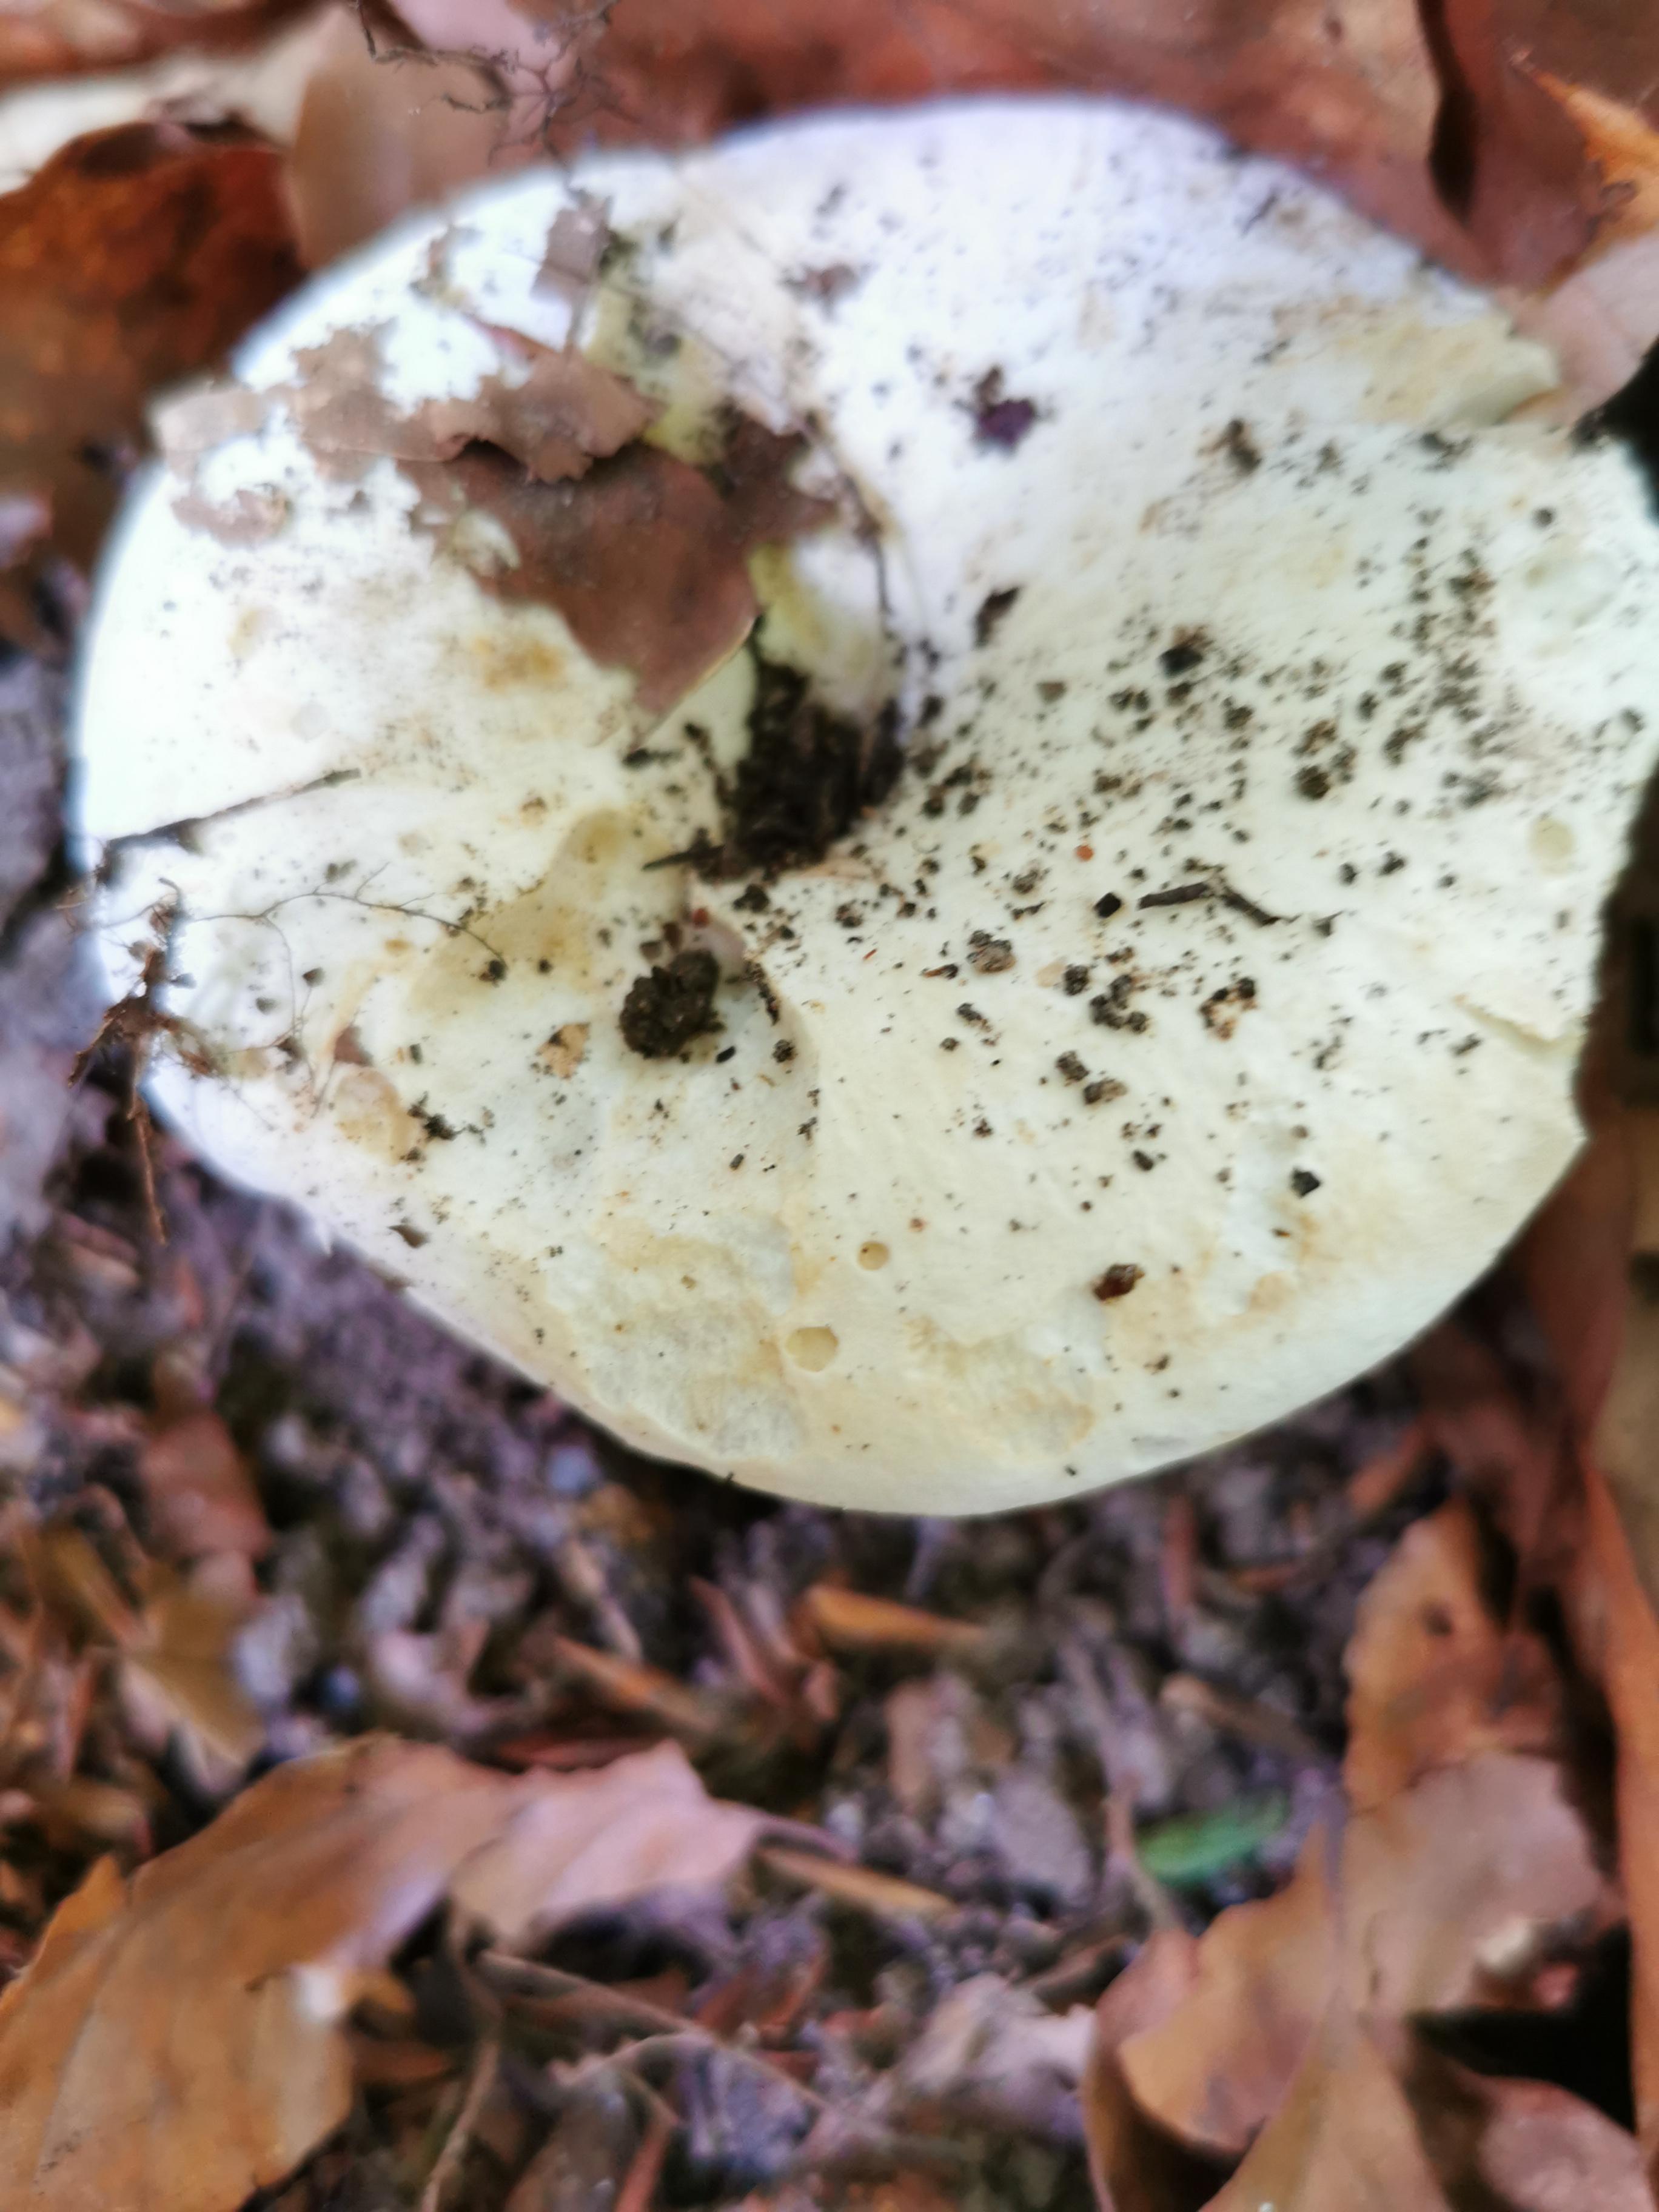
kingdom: Fungi
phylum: Basidiomycota
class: Agaricomycetes
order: Russulales
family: Russulaceae
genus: Russula
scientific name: Russula
